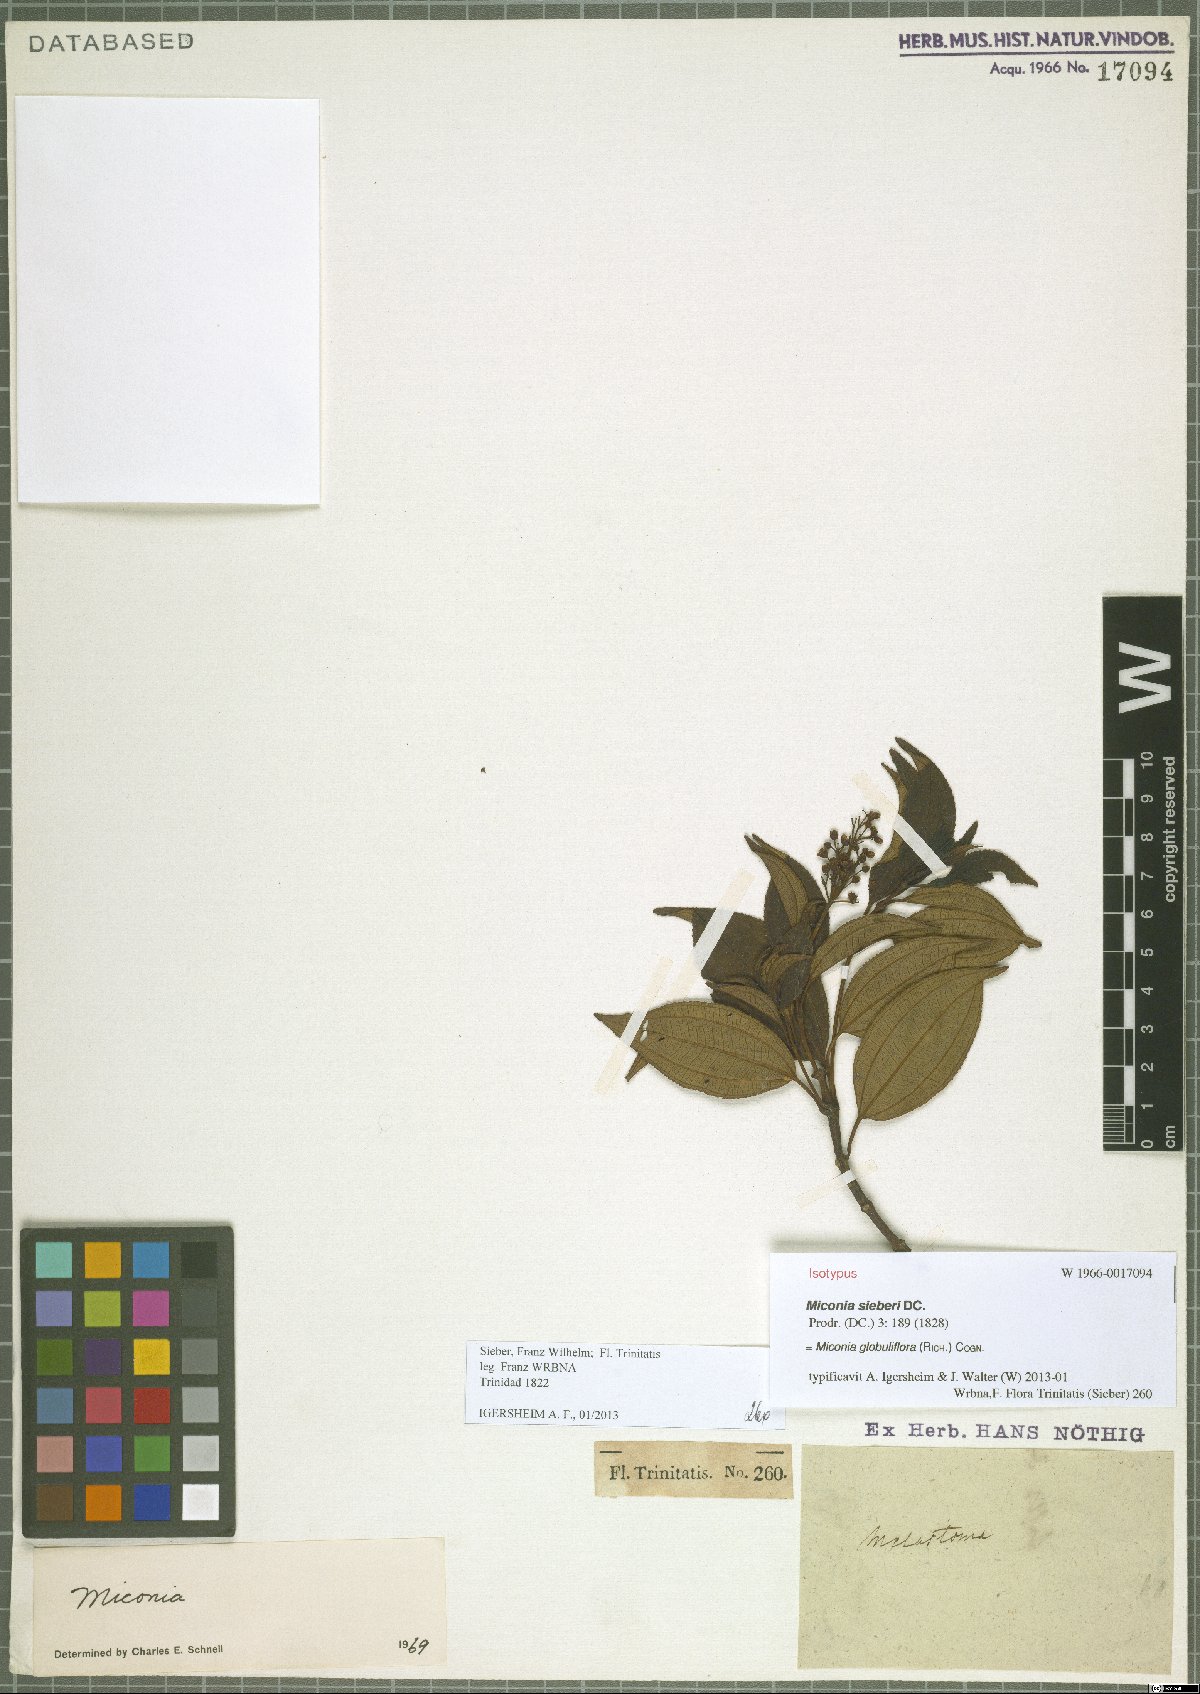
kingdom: Plantae
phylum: Tracheophyta
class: Magnoliopsida
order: Myrtales
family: Melastomataceae
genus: Miconia
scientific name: Miconia globuliflora
